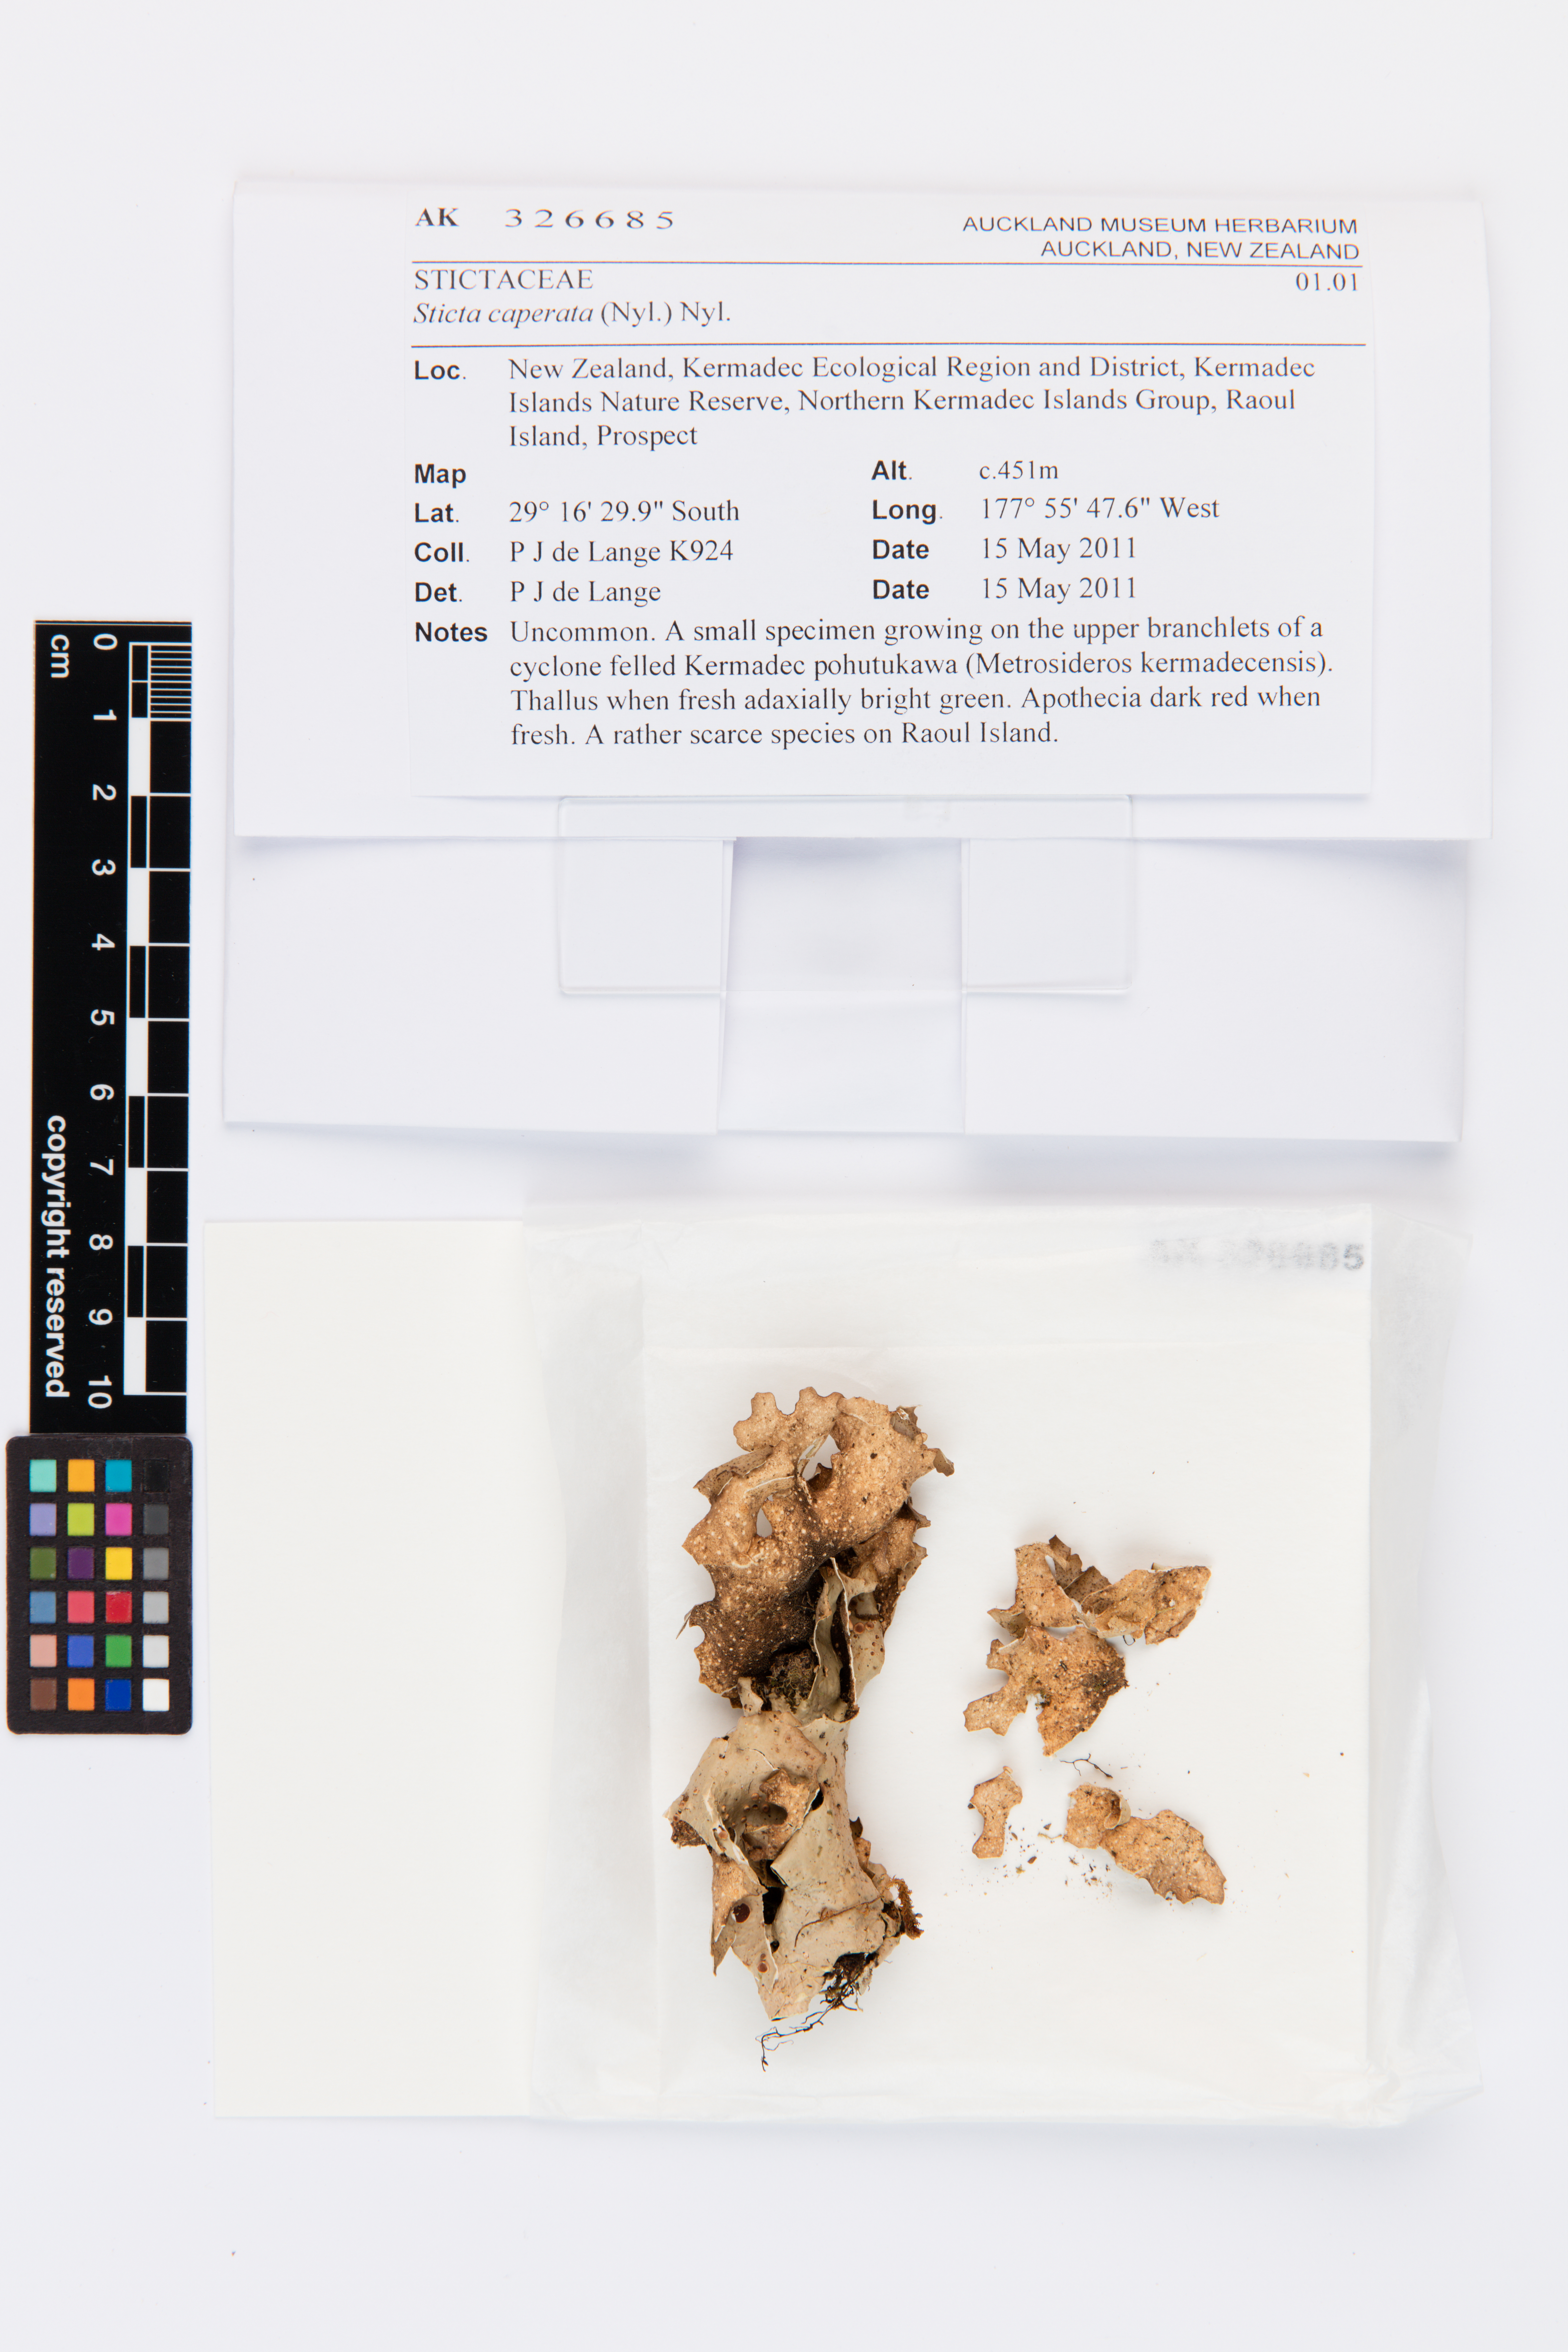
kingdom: Fungi
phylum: Ascomycota
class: Lecanoromycetes
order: Peltigerales
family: Lobariaceae
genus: Sticta
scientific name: Sticta caperata
